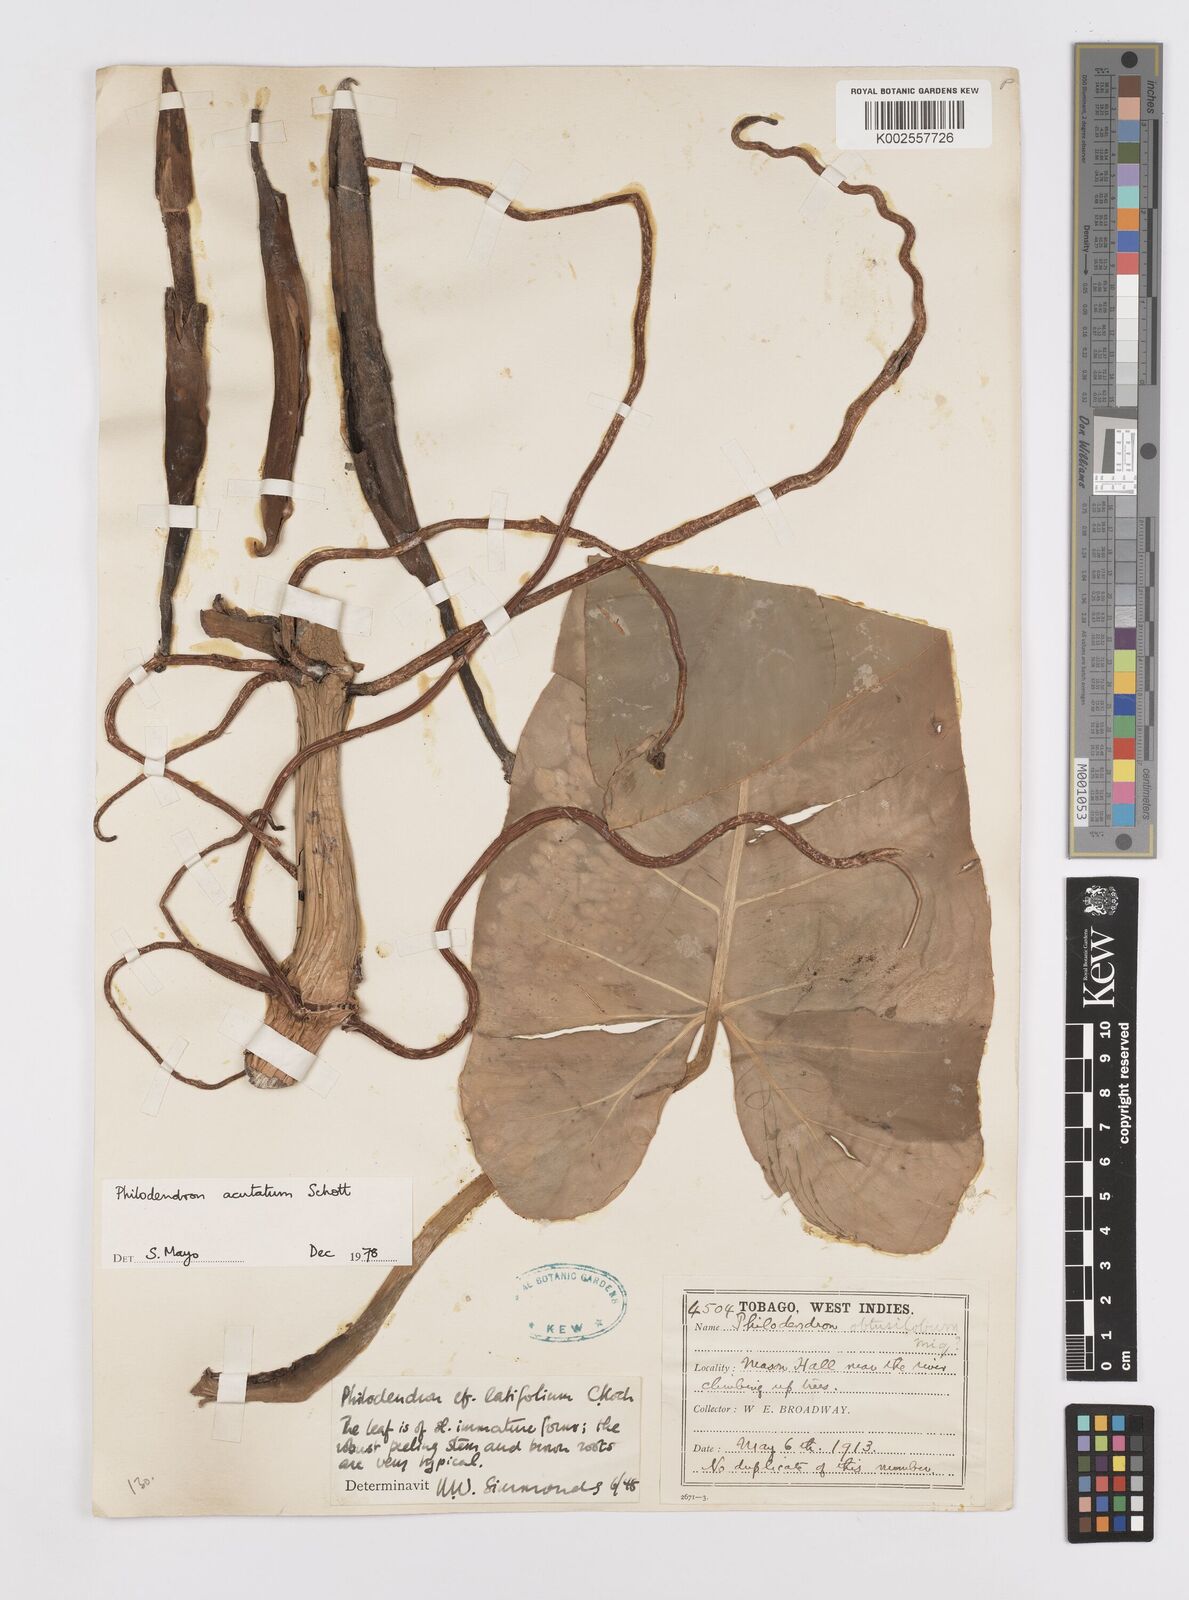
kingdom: Plantae
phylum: Tracheophyta
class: Liliopsida
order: Alismatales
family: Araceae
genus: Philodendron
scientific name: Philodendron quinquenervium
